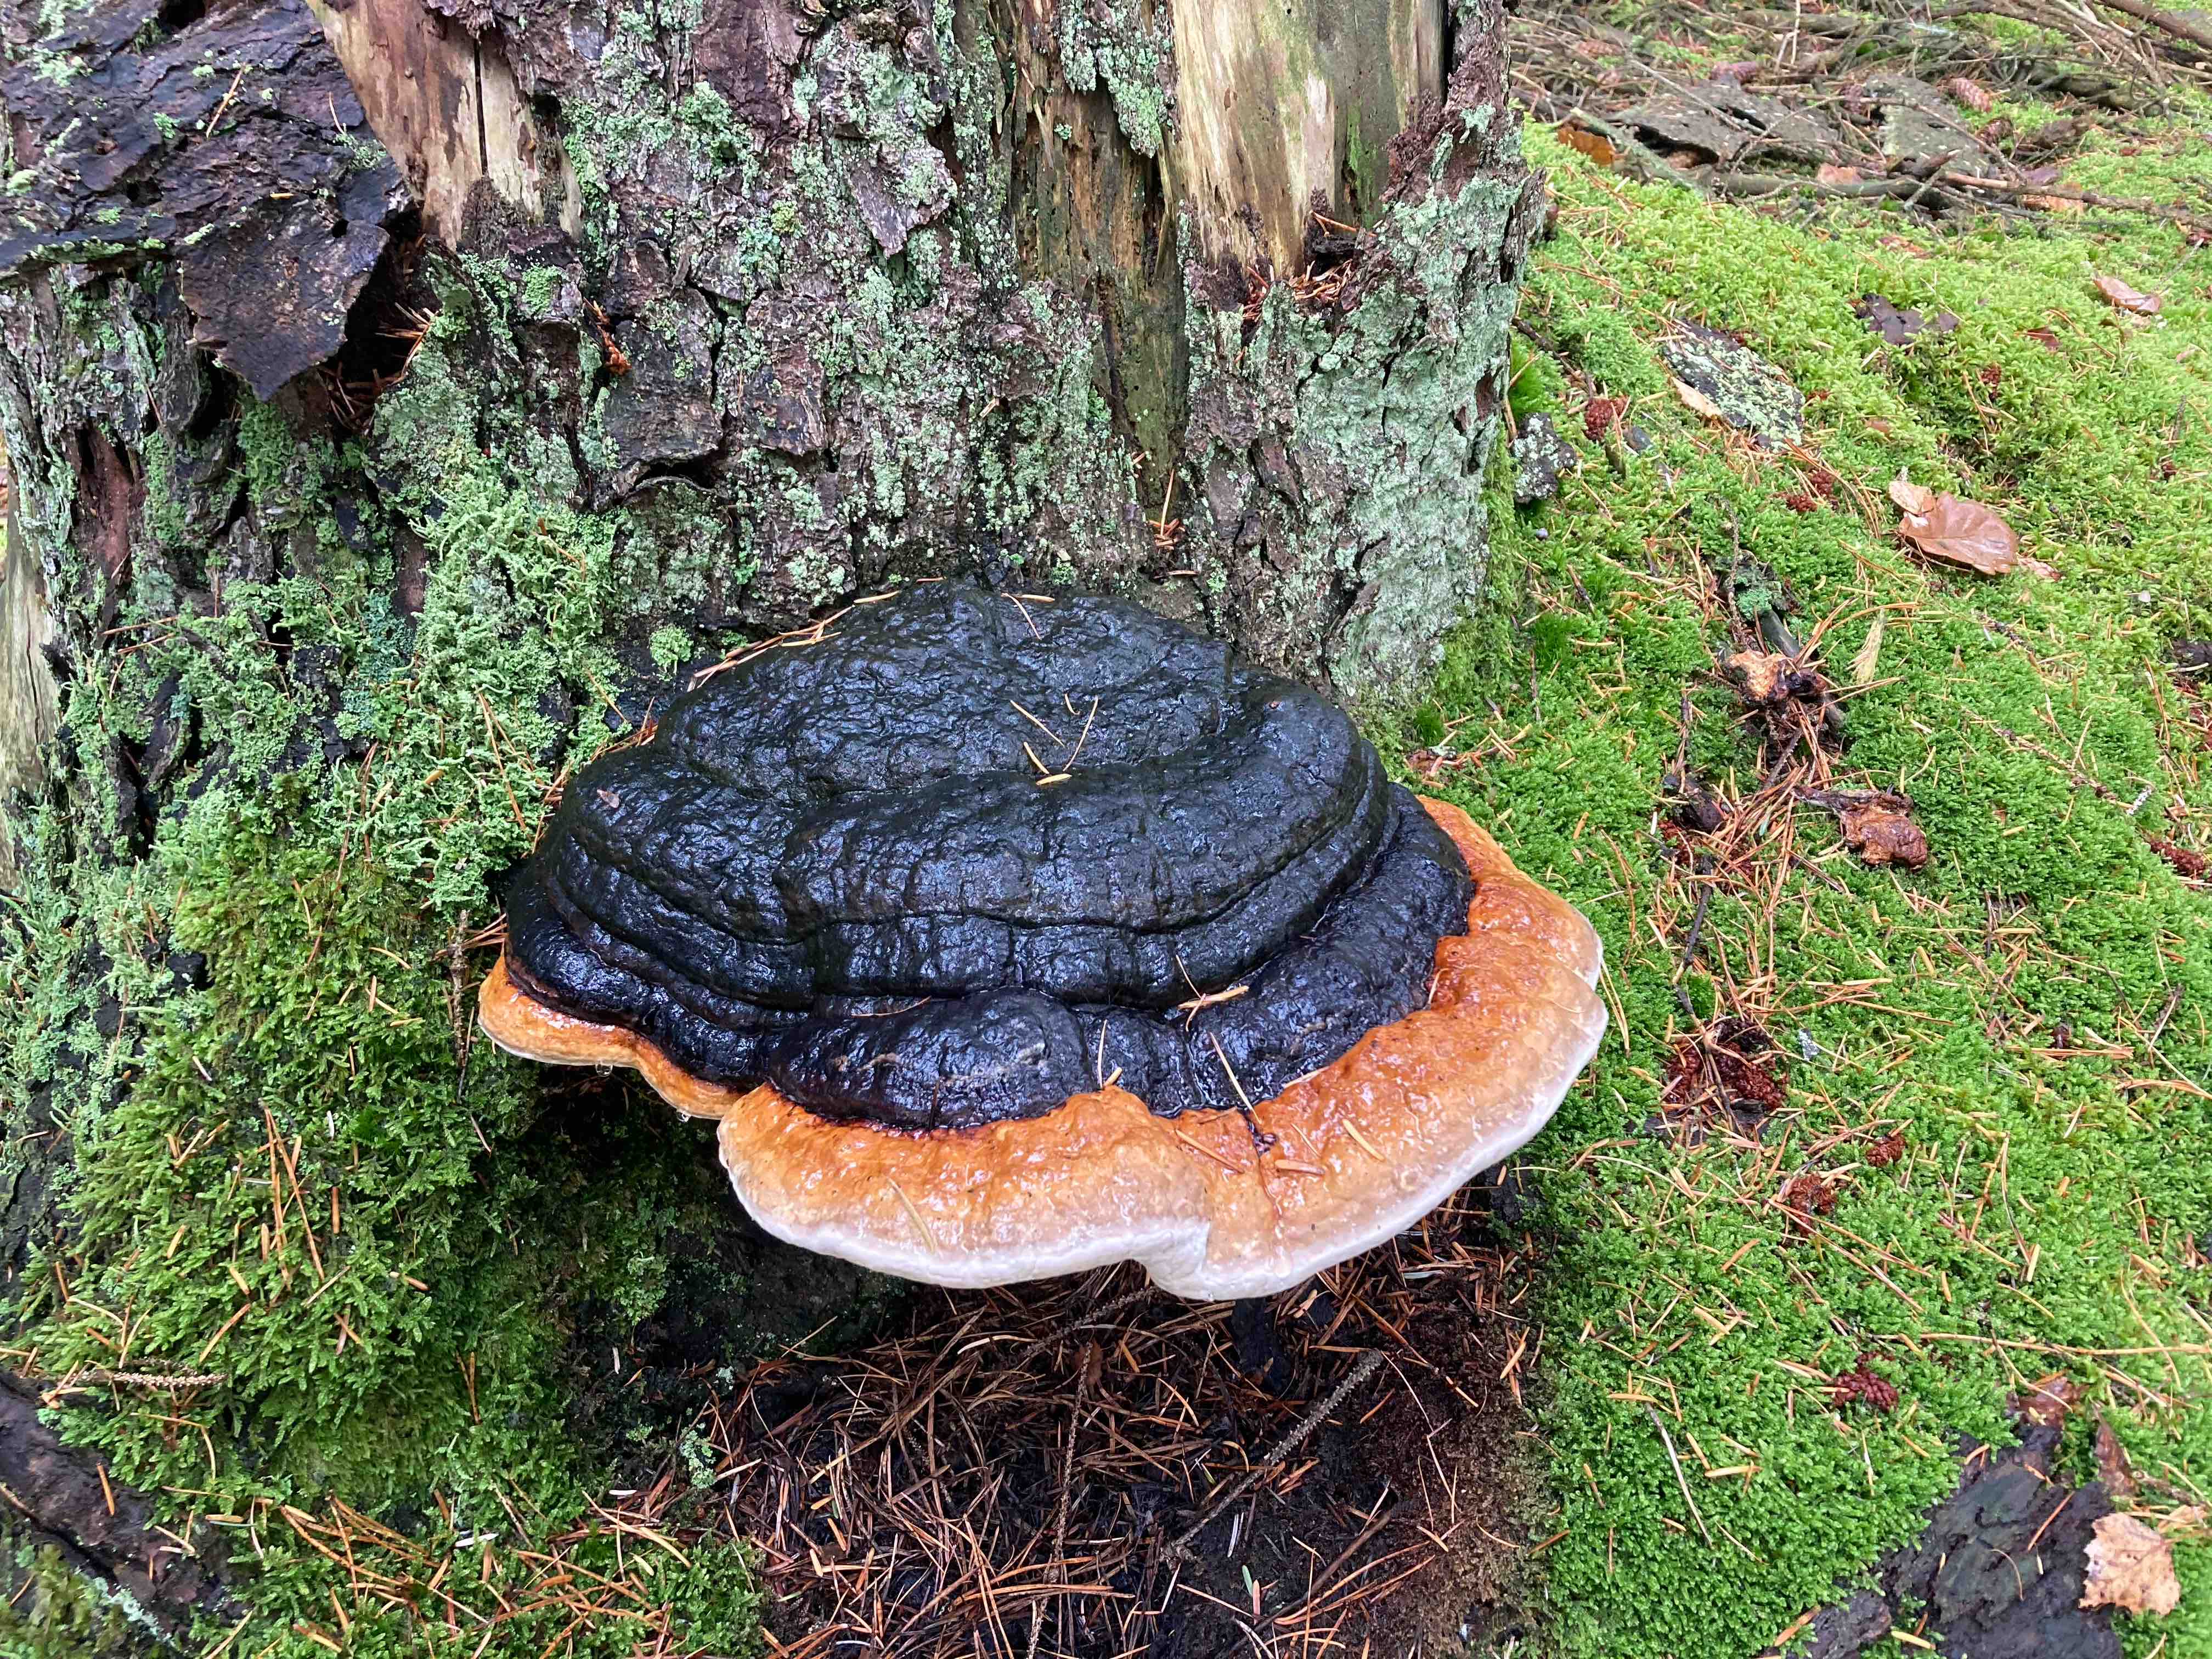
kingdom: Fungi
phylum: Basidiomycota
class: Agaricomycetes
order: Polyporales
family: Fomitopsidaceae
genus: Fomitopsis
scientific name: Fomitopsis pinicola
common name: randbæltet hovporesvamp
